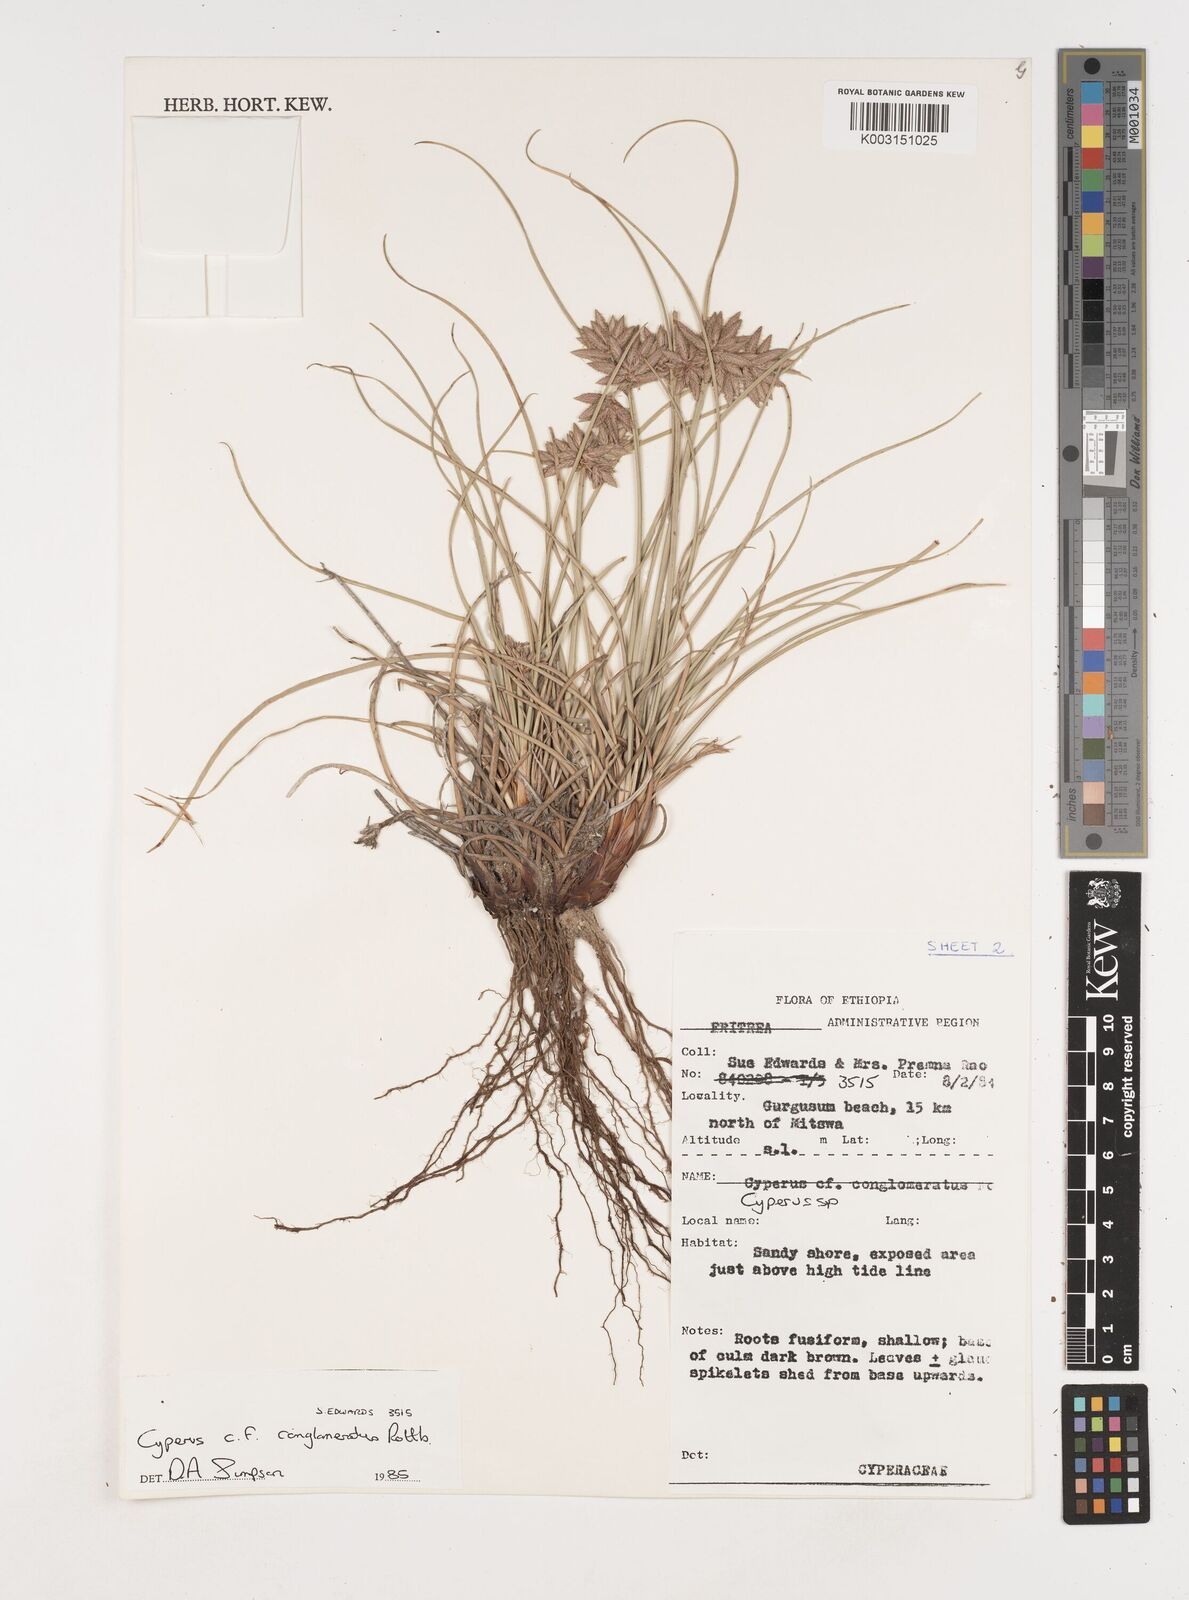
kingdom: Plantae
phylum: Tracheophyta
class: Liliopsida
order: Poales
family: Cyperaceae
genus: Cyperus
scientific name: Cyperus conglomeratus
